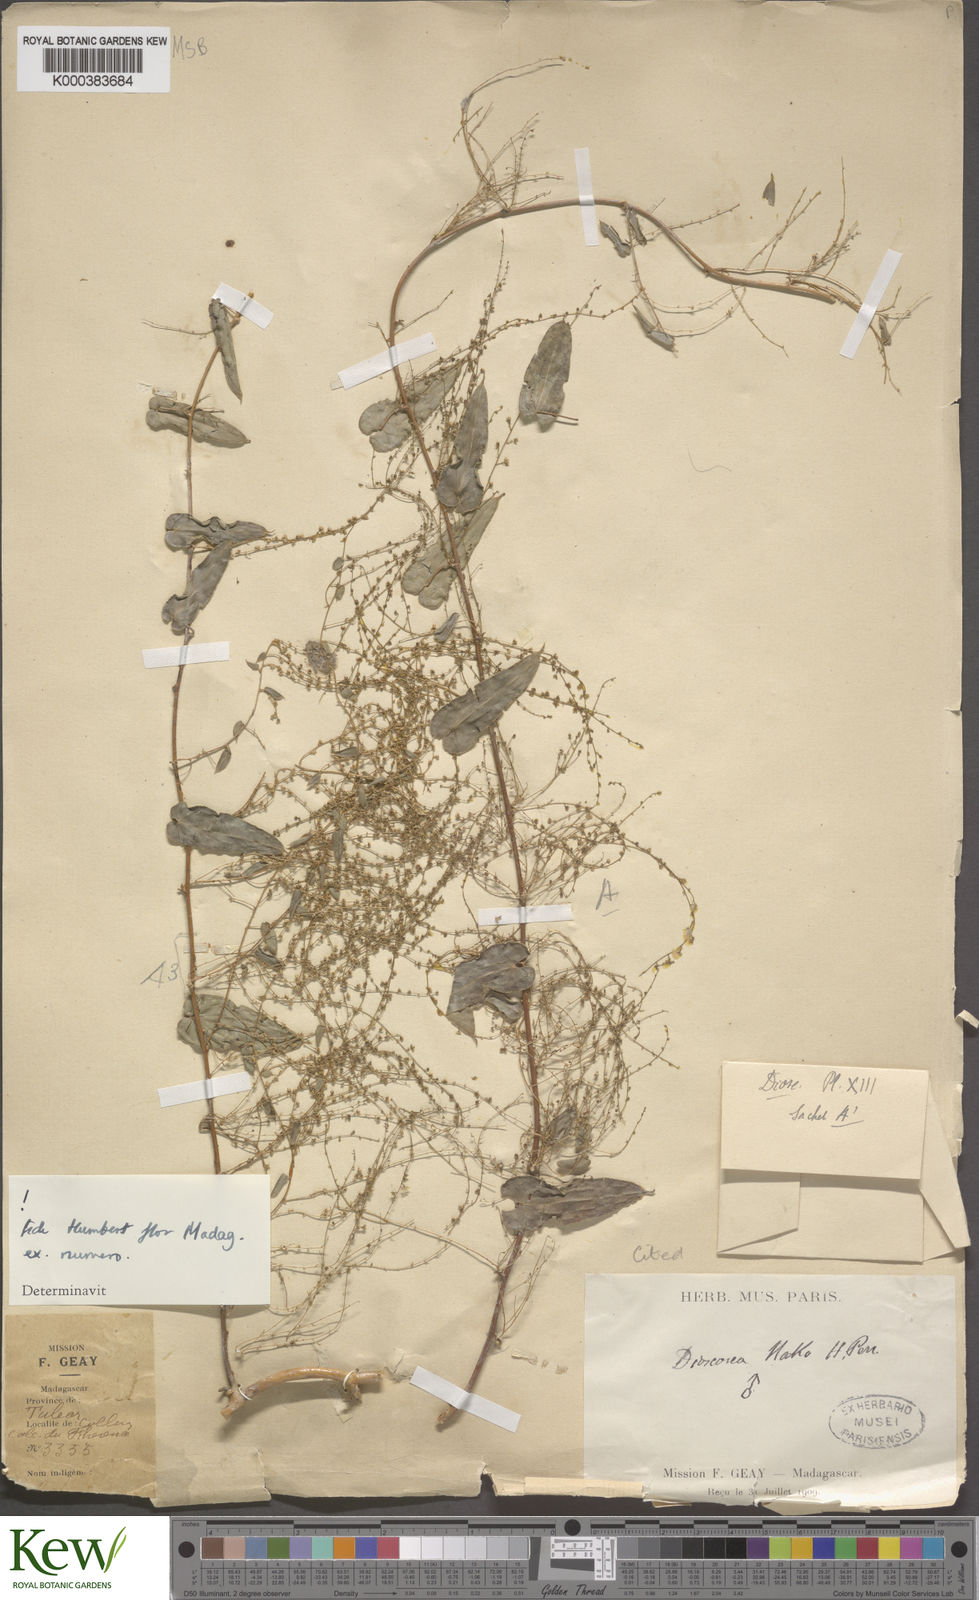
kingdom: Plantae
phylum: Tracheophyta
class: Liliopsida
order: Dioscoreales
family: Dioscoreaceae
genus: Dioscorea
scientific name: Dioscorea
